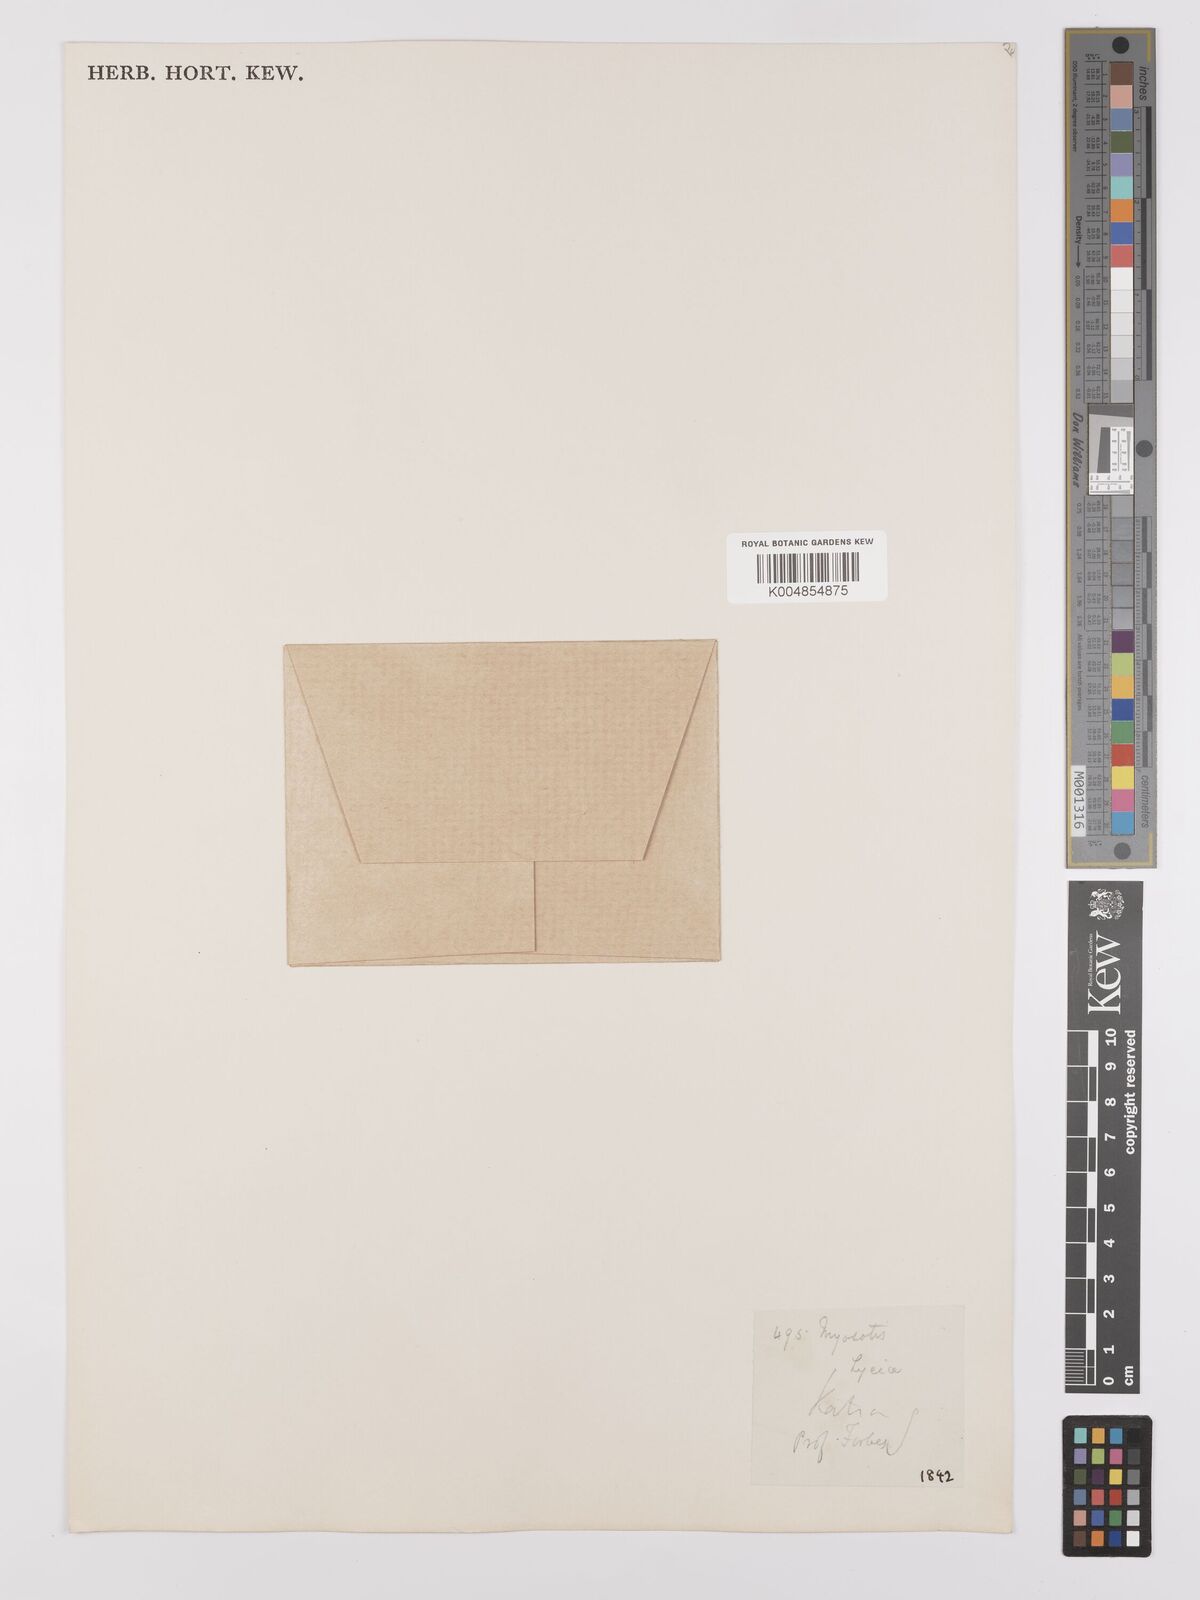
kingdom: Plantae
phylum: Tracheophyta
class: Magnoliopsida
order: Boraginales
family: Boraginaceae
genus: Myosotis
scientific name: Myosotis minutiflora
